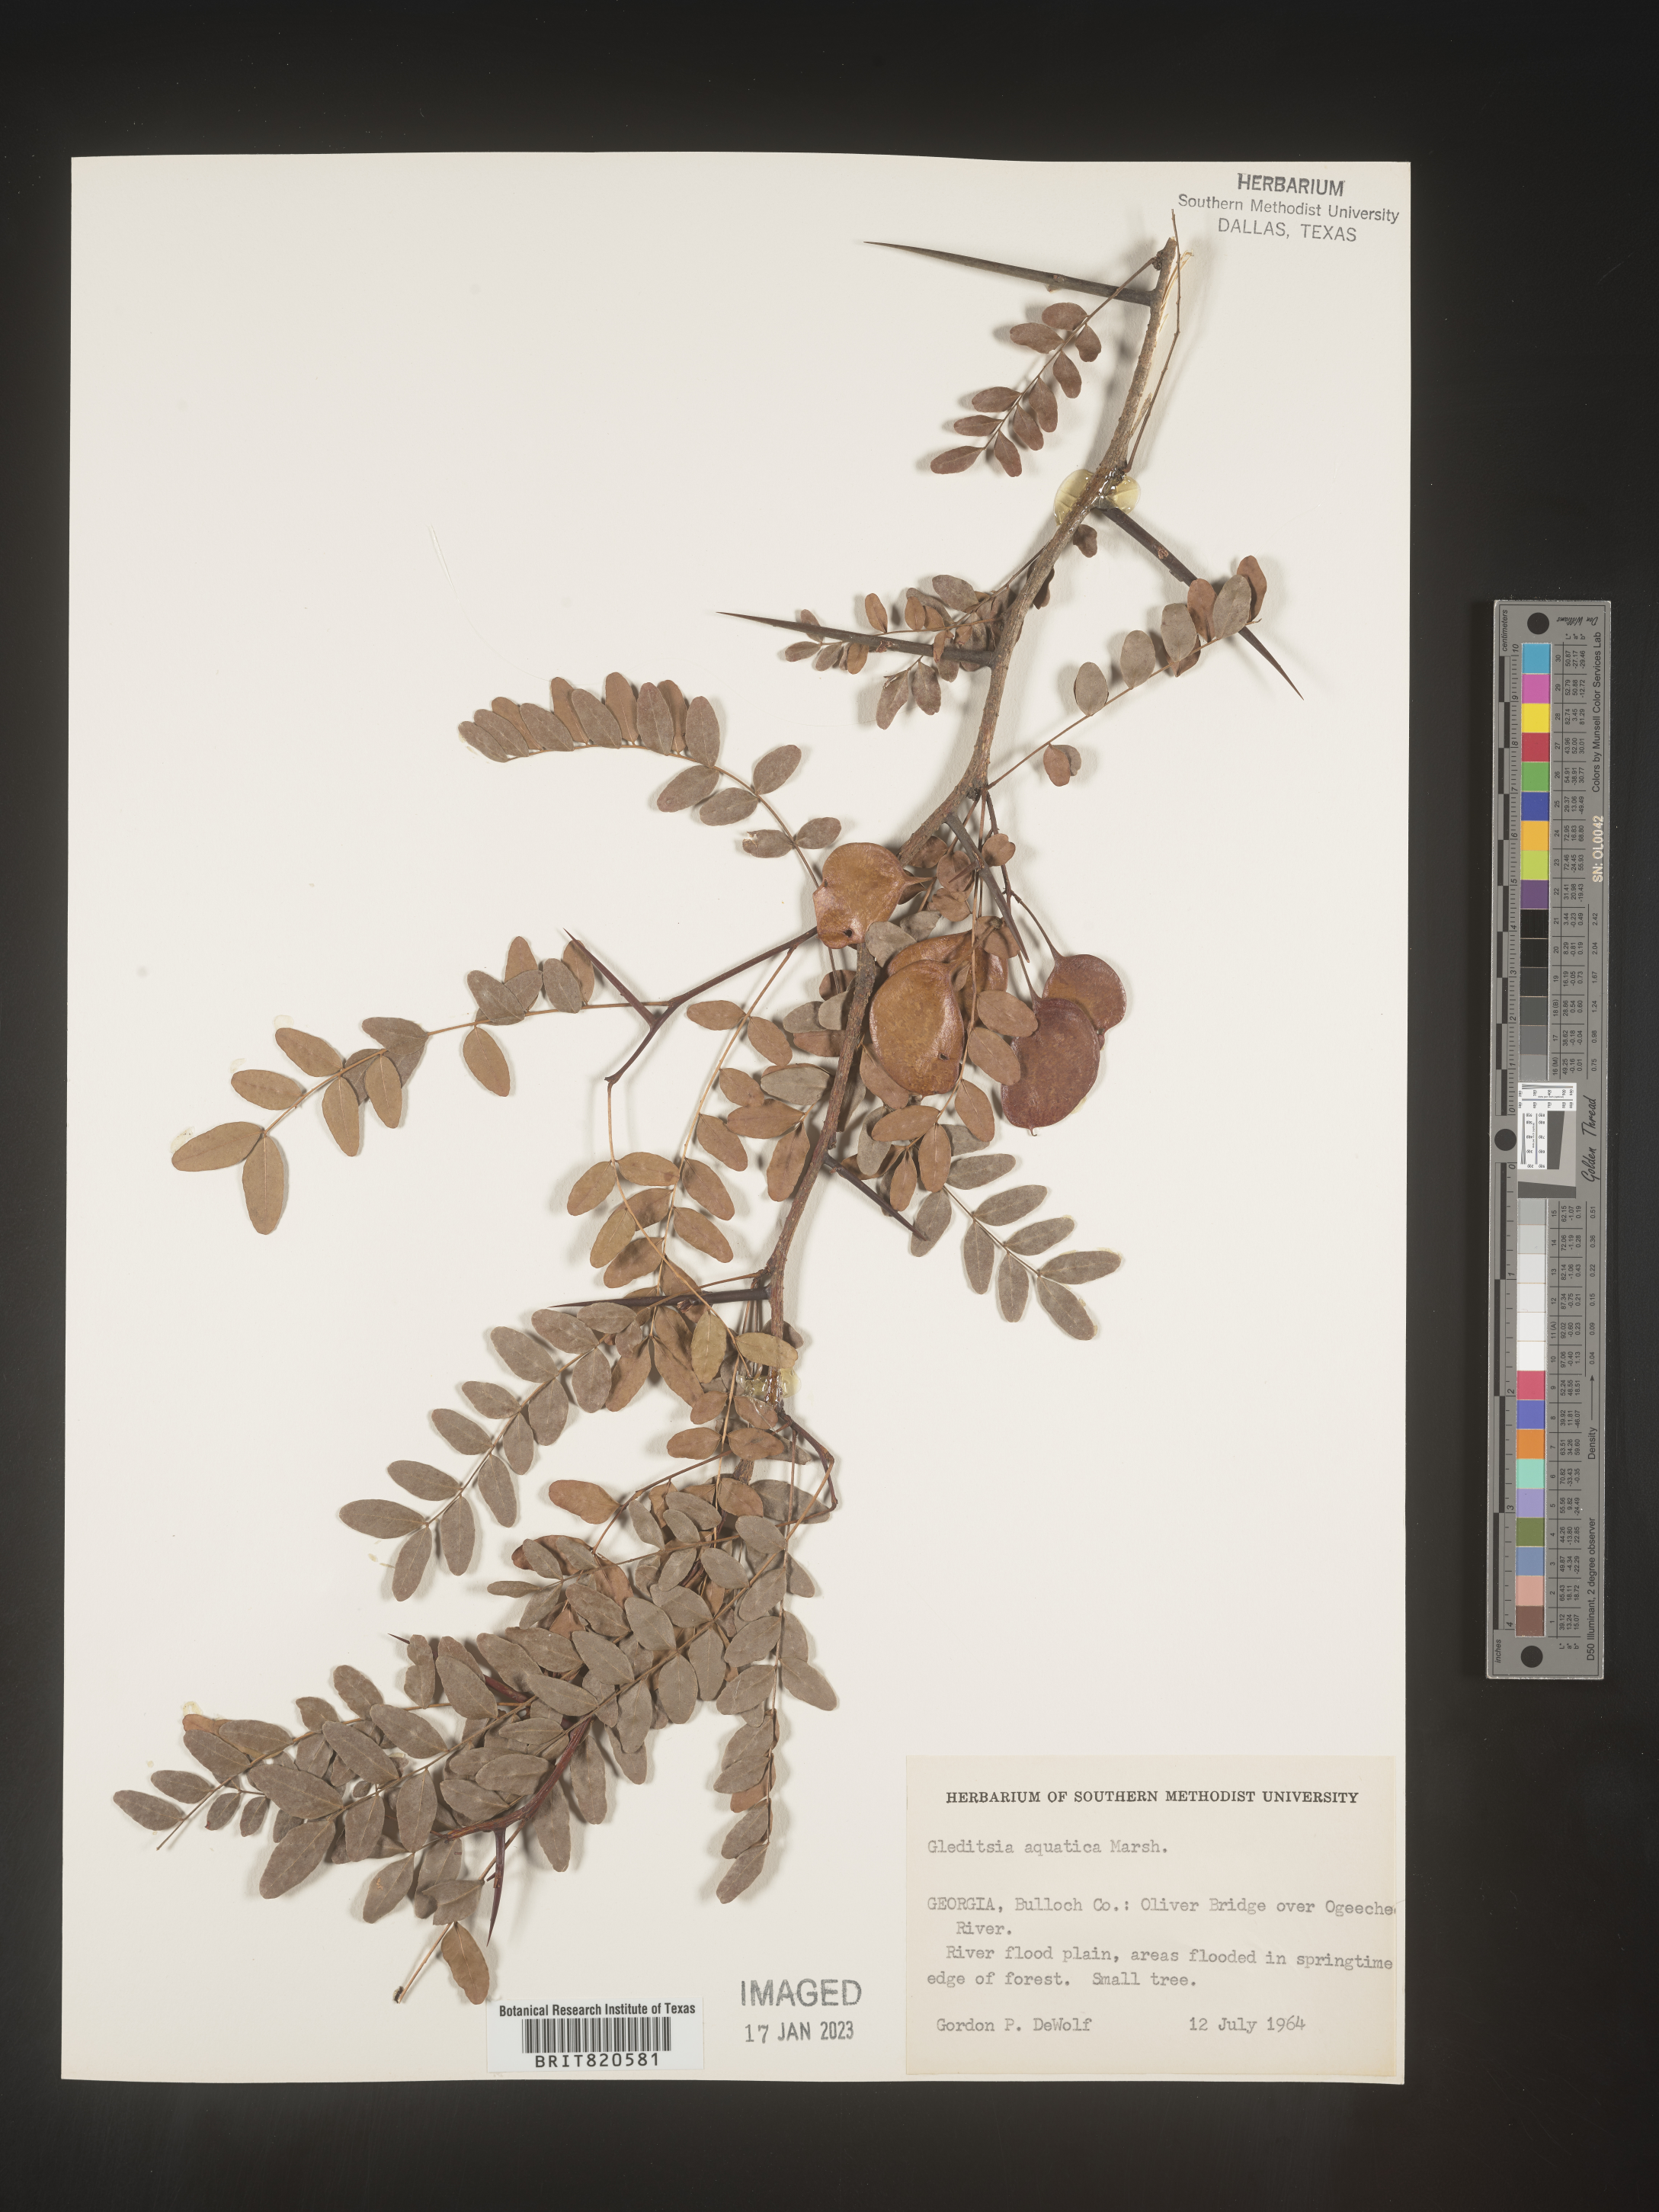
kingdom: Plantae
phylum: Tracheophyta
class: Magnoliopsida
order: Fabales
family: Fabaceae
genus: Gleditsia
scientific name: Gleditsia aquatica
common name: Swamp-locust
